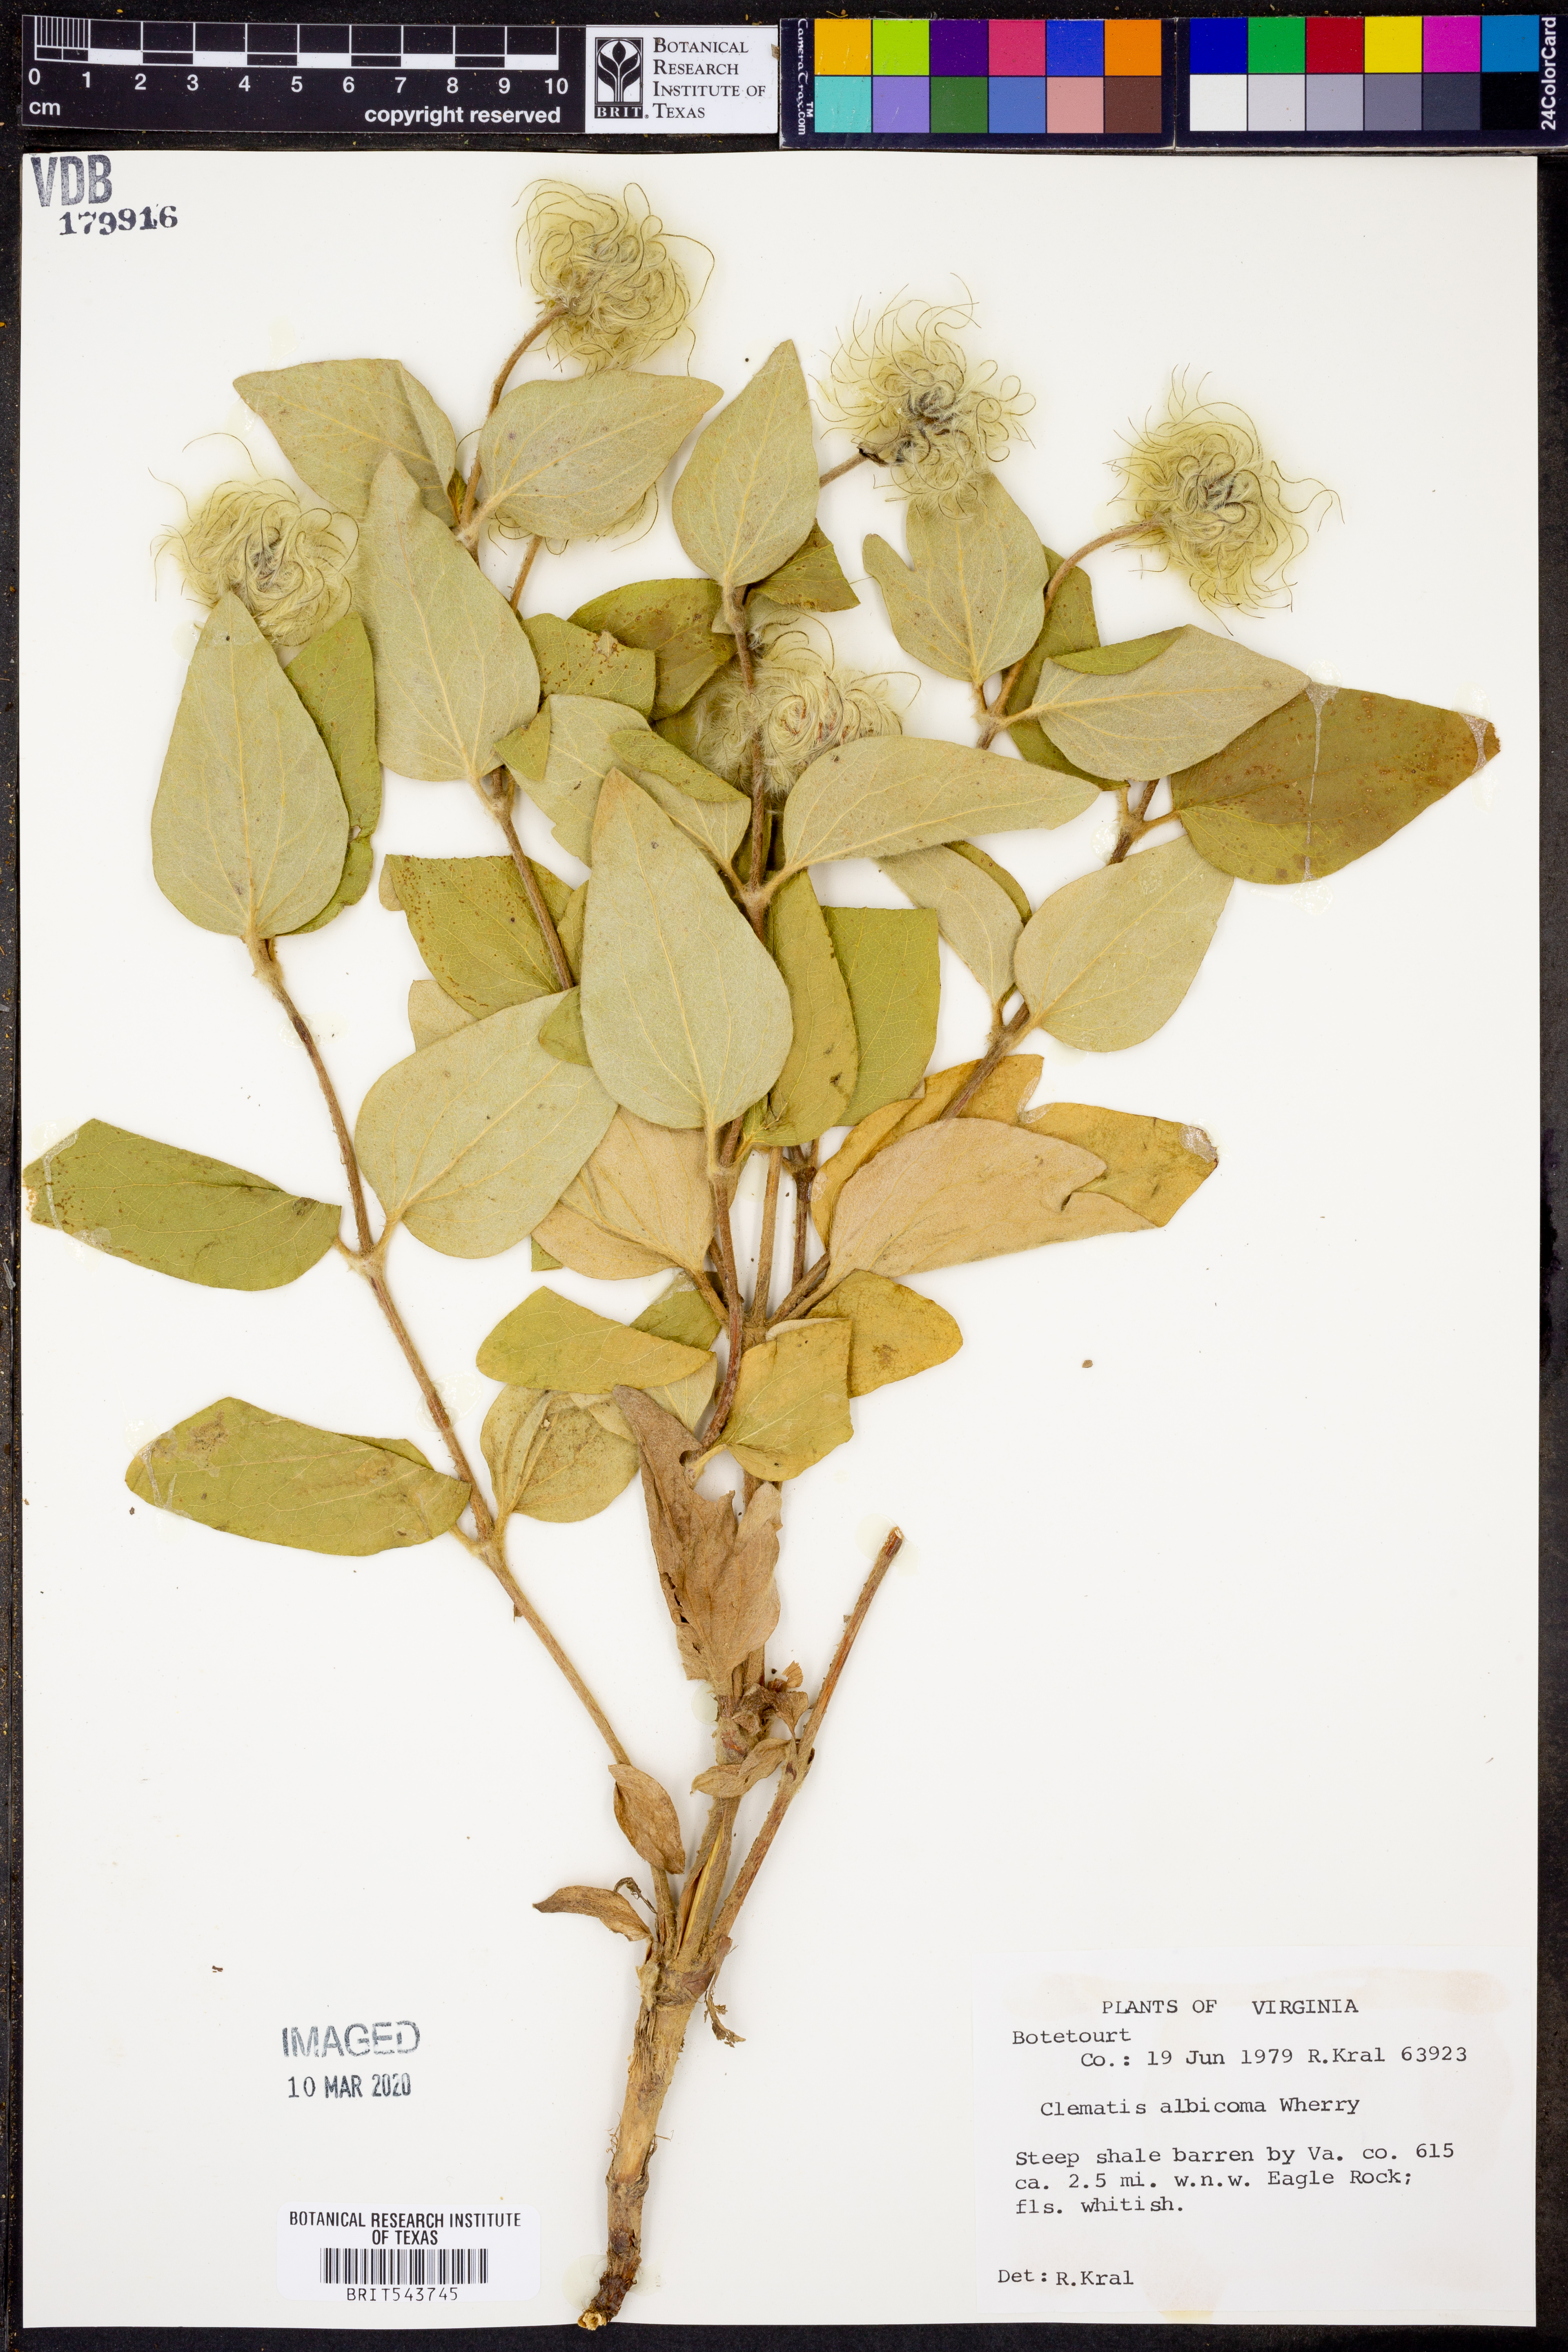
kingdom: Plantae
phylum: Tracheophyta
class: Magnoliopsida
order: Ranunculales
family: Ranunculaceae
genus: Clematis
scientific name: Clematis albicoma
